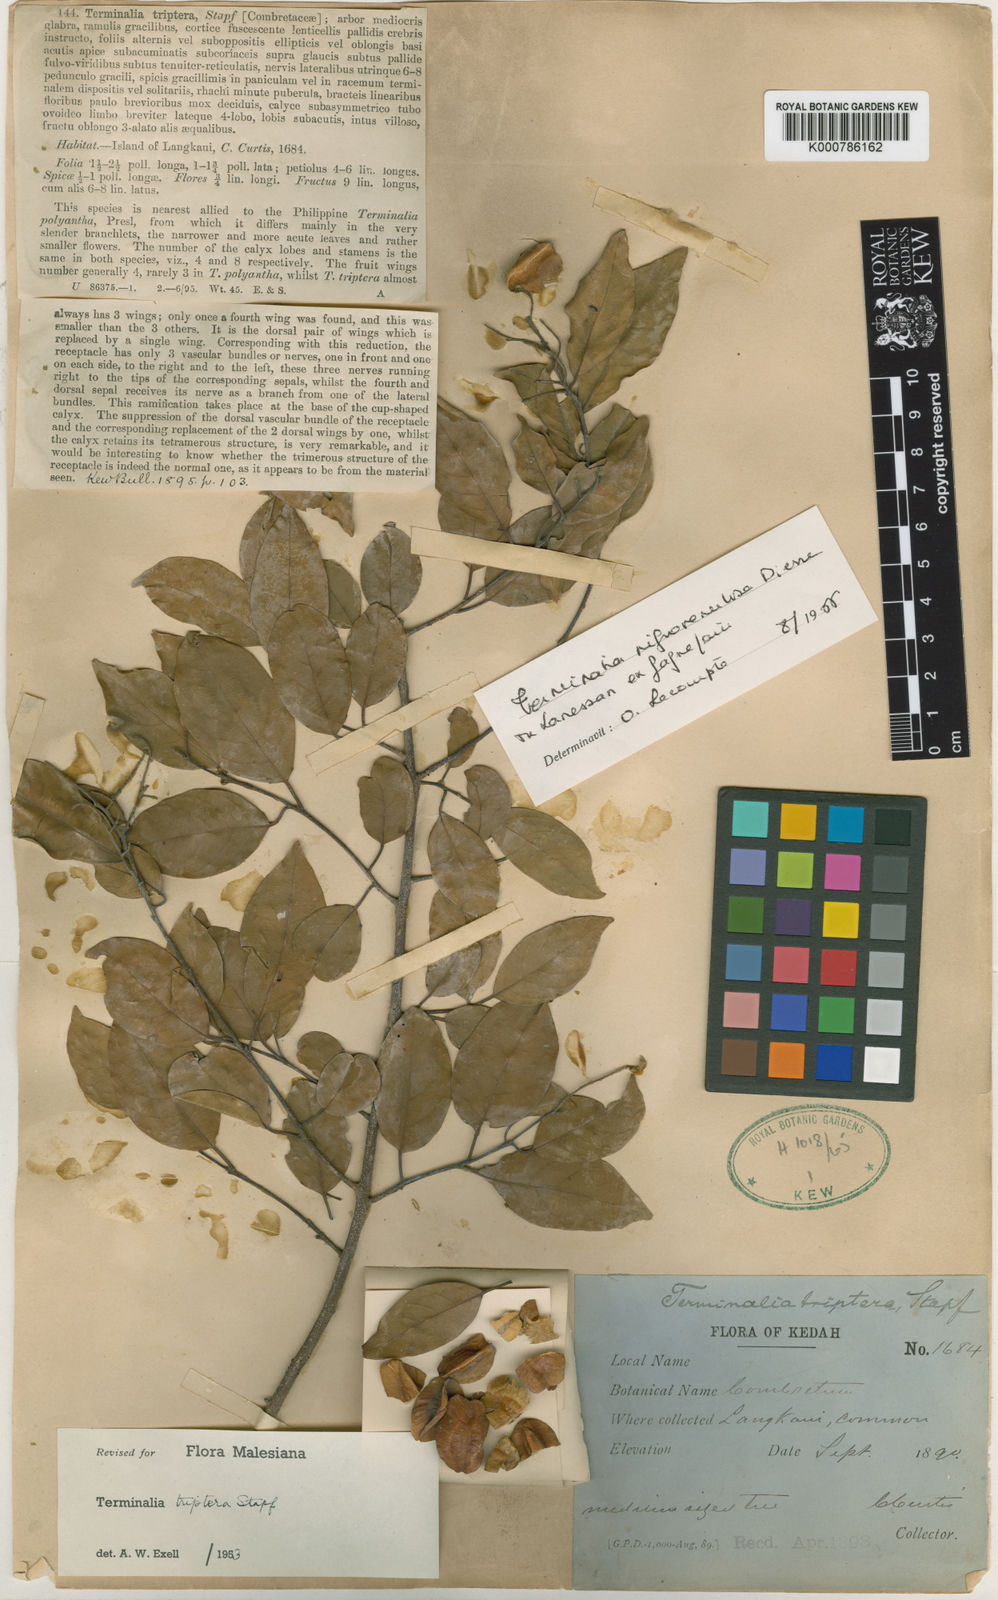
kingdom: Plantae
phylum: Tracheophyta
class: Magnoliopsida
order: Myrtales
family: Combretaceae
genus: Terminalia
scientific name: Terminalia triptera
